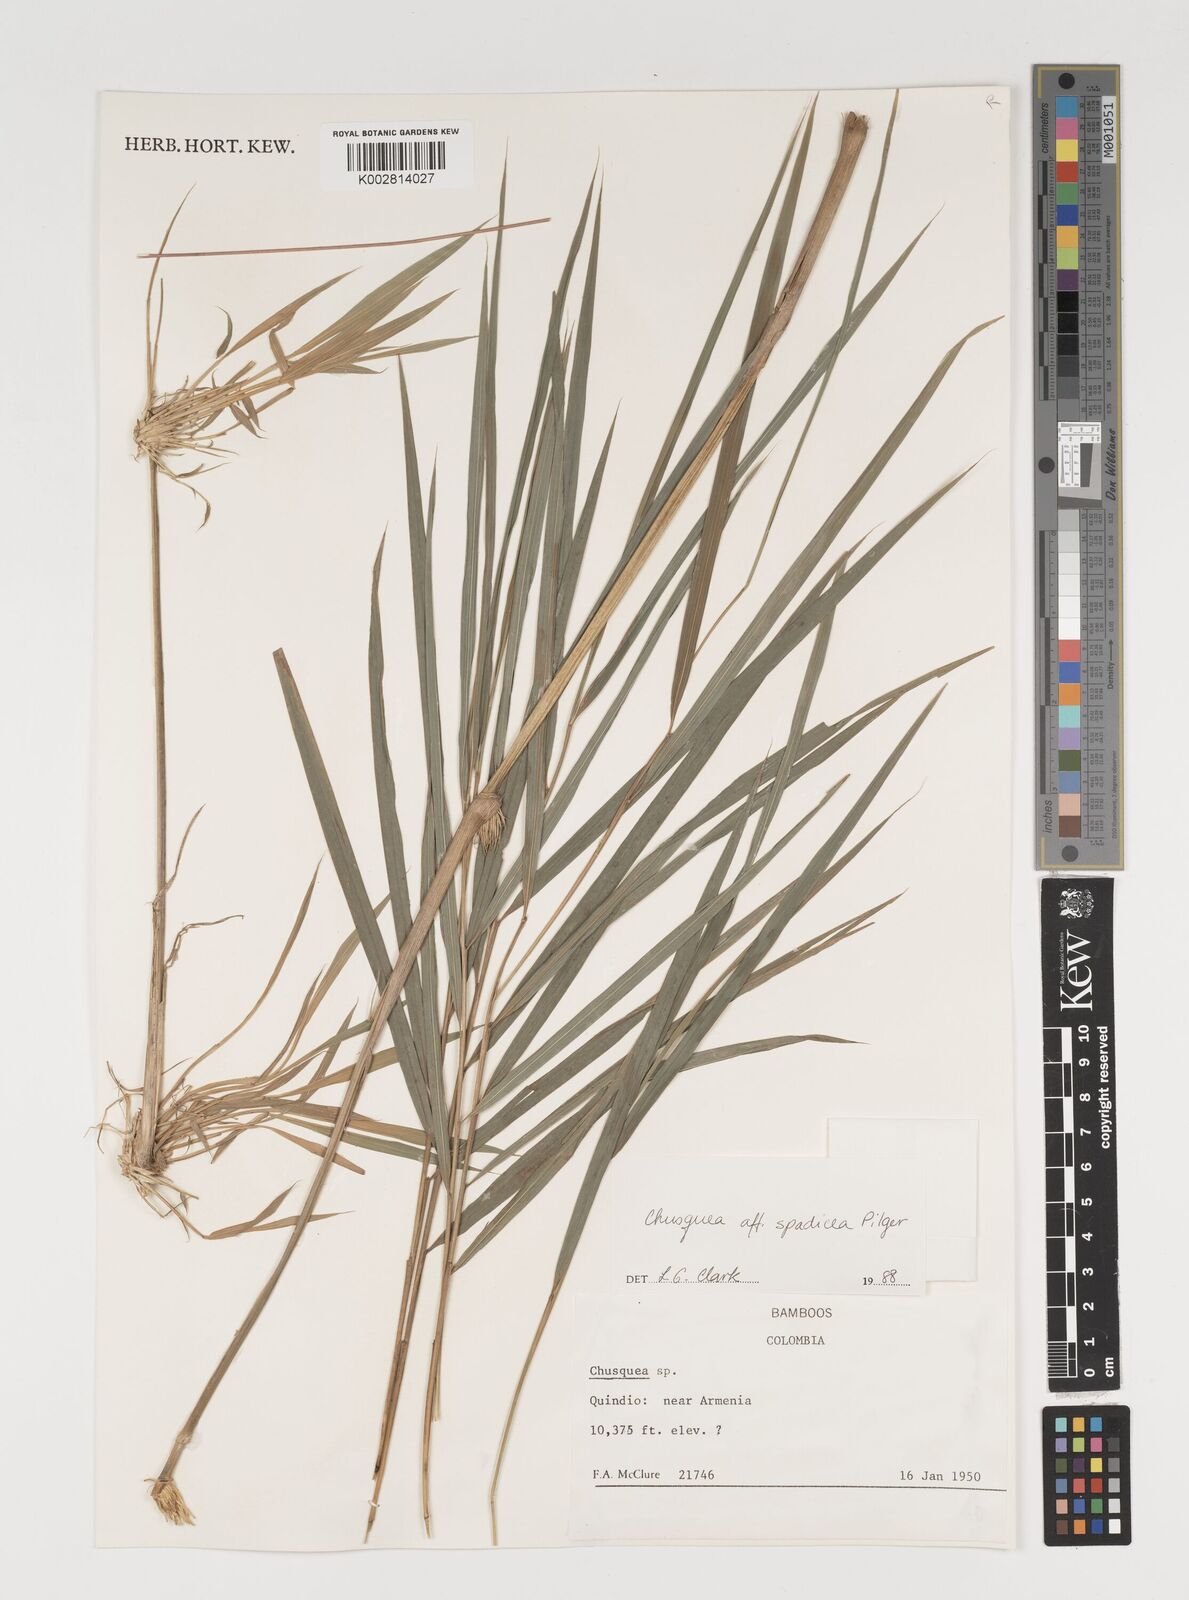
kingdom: Plantae
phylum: Tracheophyta
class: Liliopsida
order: Poales
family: Poaceae
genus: Chusquea
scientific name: Chusquea
